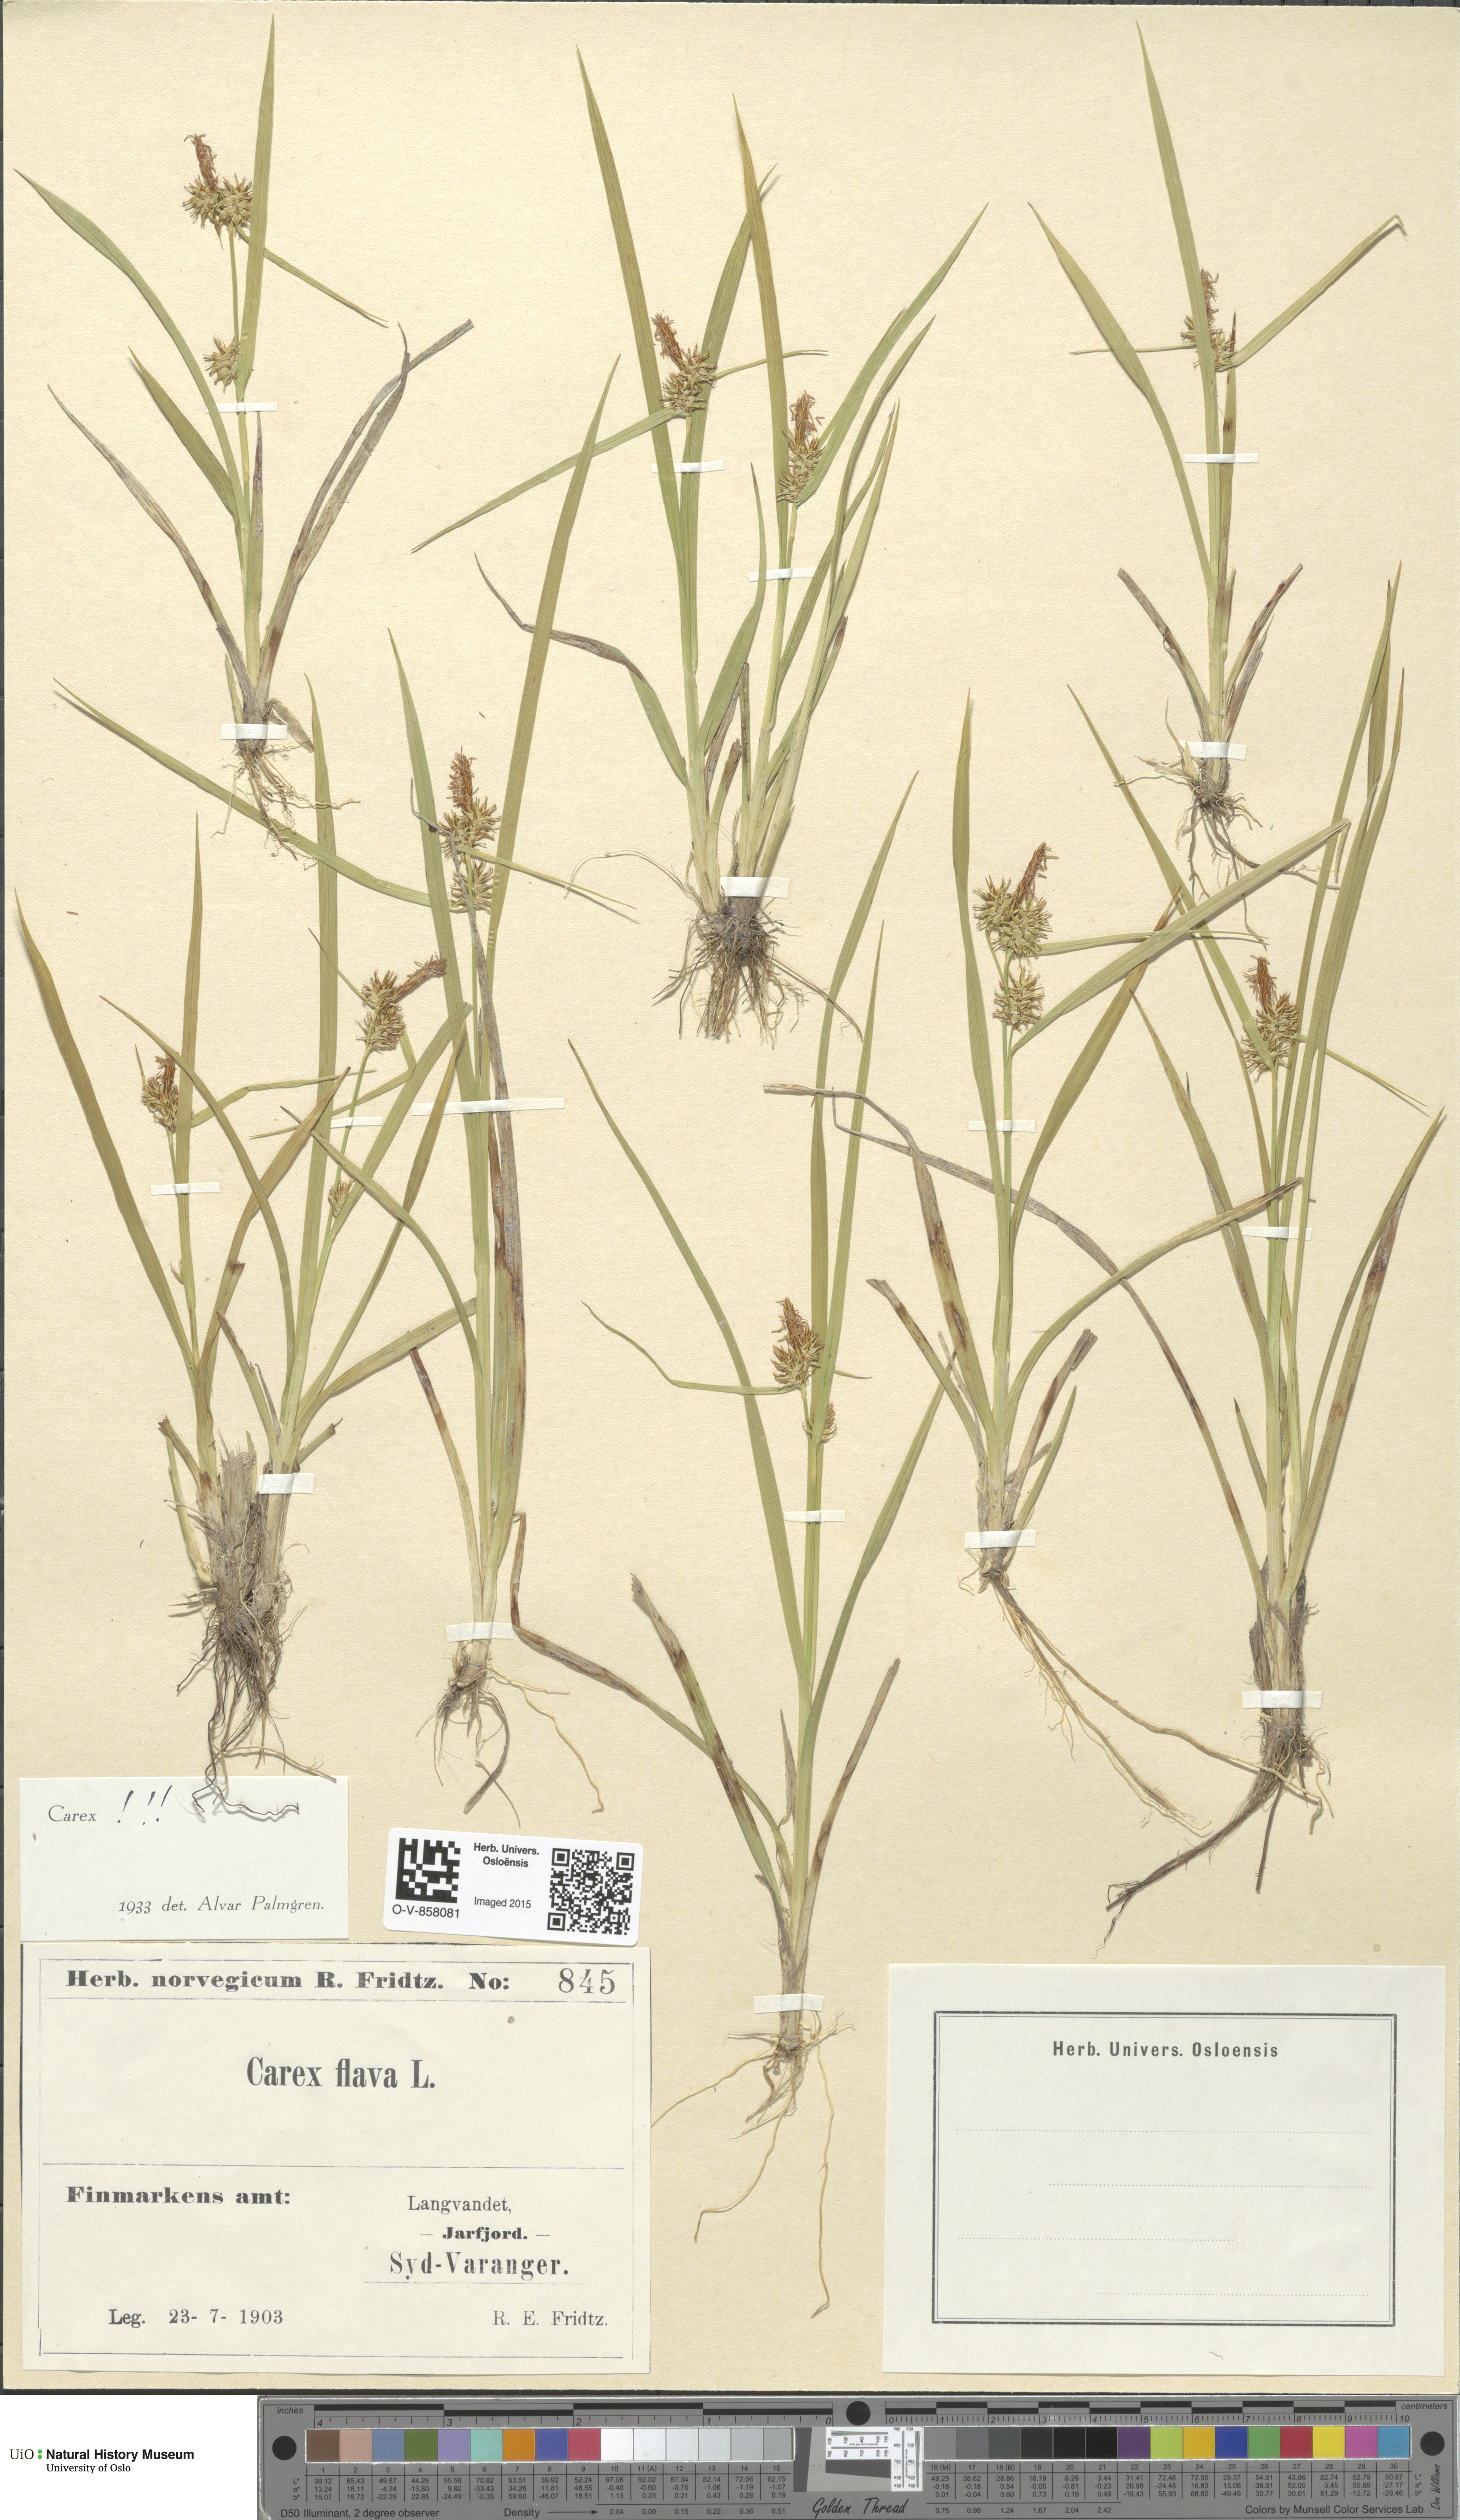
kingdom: Plantae
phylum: Tracheophyta
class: Liliopsida
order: Poales
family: Cyperaceae
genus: Carex
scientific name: Carex flava
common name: Large yellow-sedge
